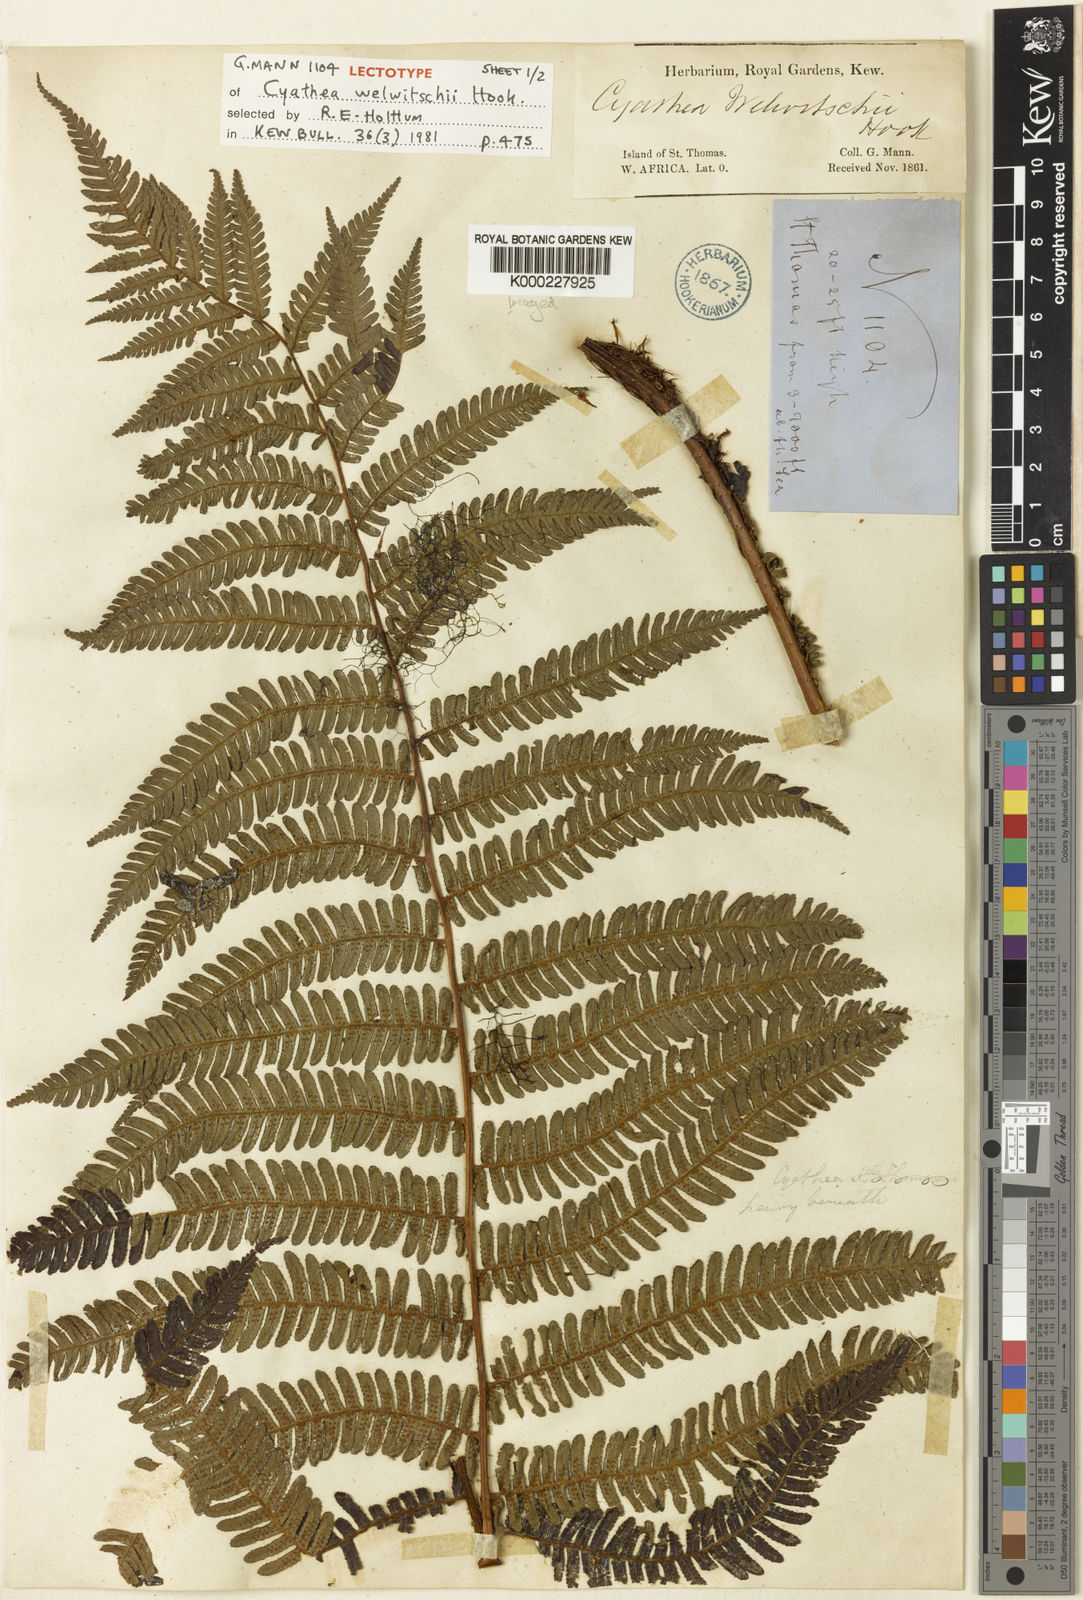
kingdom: Plantae
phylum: Tracheophyta
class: Polypodiopsida
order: Cyatheales
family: Cyatheaceae
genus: Alsophila
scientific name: Alsophila welwitschii
